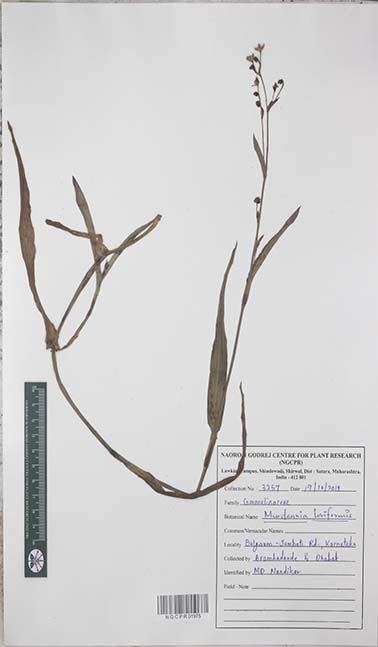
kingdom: Plantae
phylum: Tracheophyta
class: Liliopsida
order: Commelinales
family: Commelinaceae
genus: Murdannia
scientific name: Murdannia loriformis
